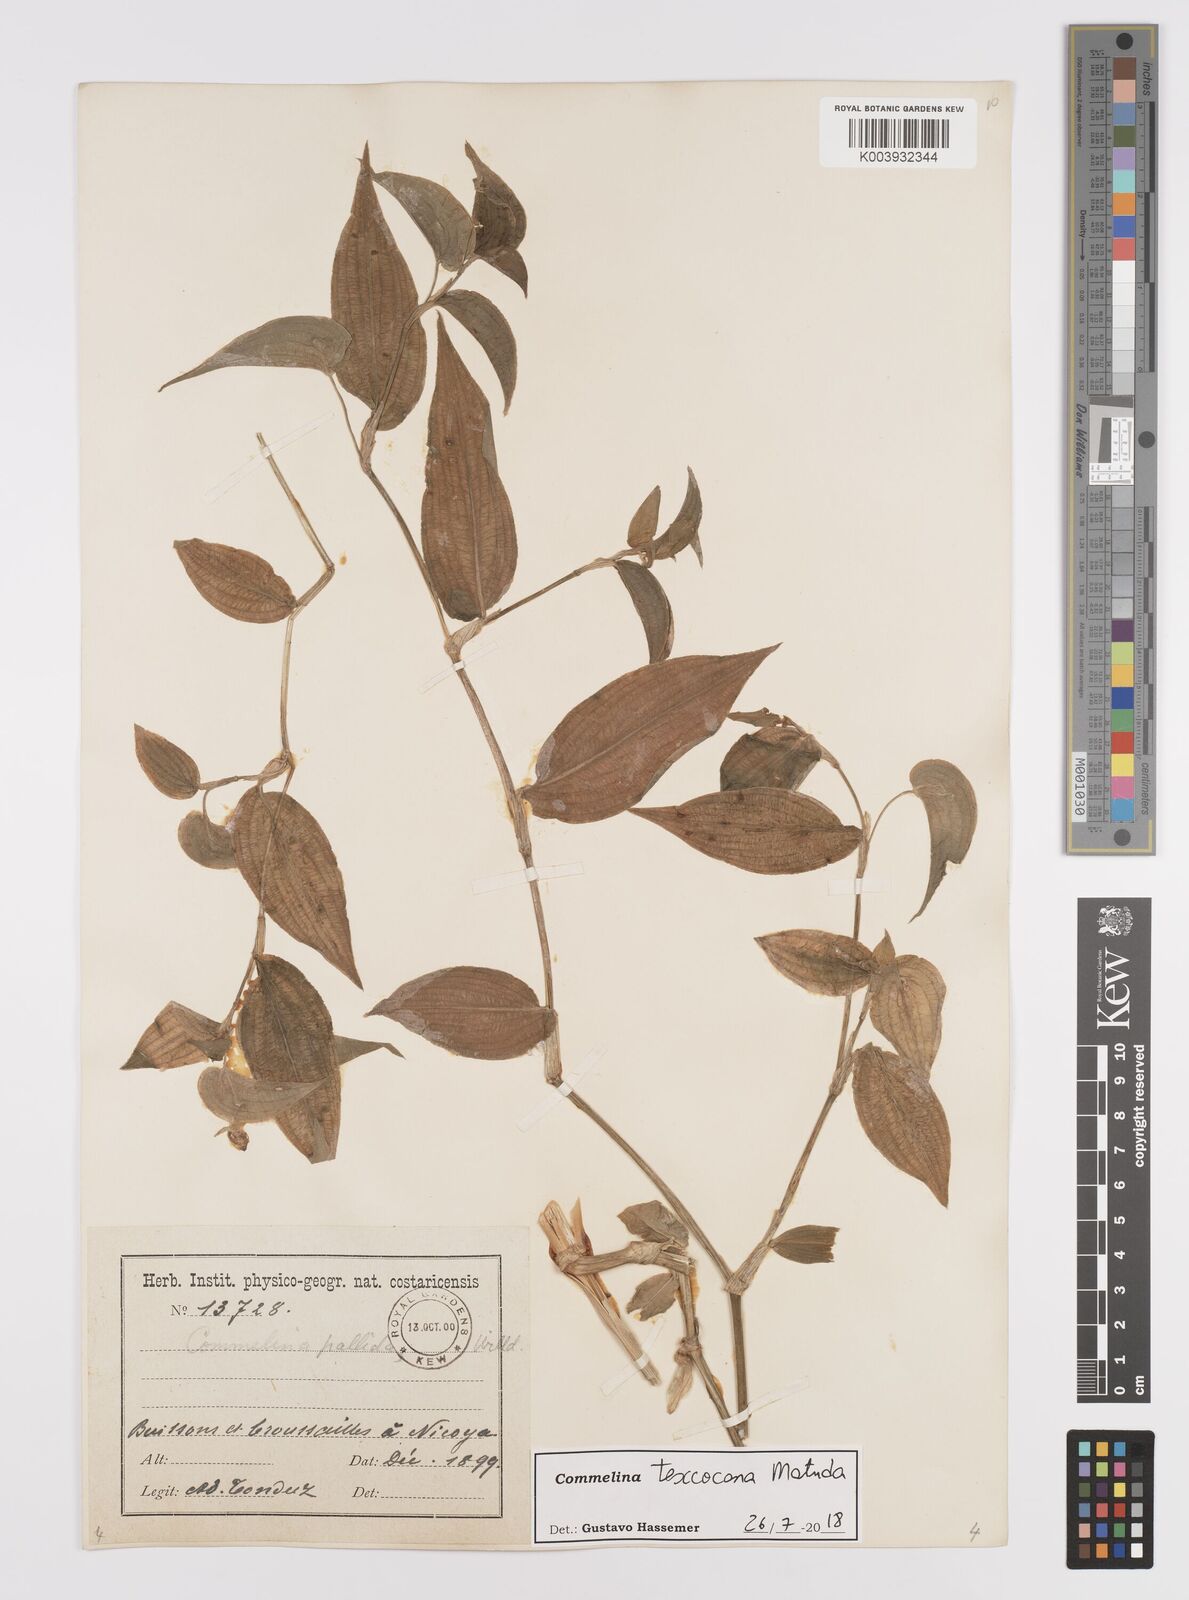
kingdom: Plantae
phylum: Tracheophyta
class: Liliopsida
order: Commelinales
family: Commelinaceae
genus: Commelina
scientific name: Commelina texcocana
